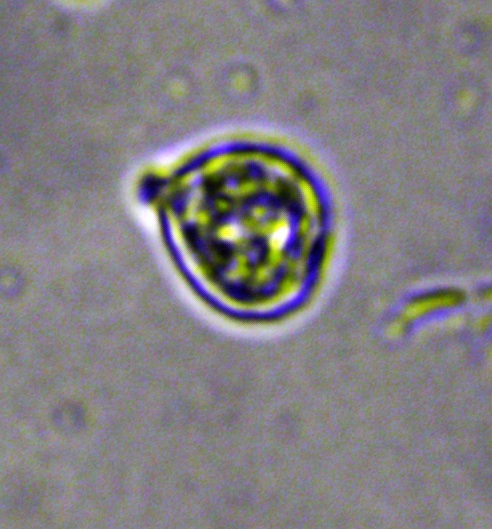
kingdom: Fungi
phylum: Basidiomycota
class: Agaricomycetes
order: Agaricales
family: Clavariaceae
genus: Clavaria
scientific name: Clavaria flavipes
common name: strågul køllesvamp
